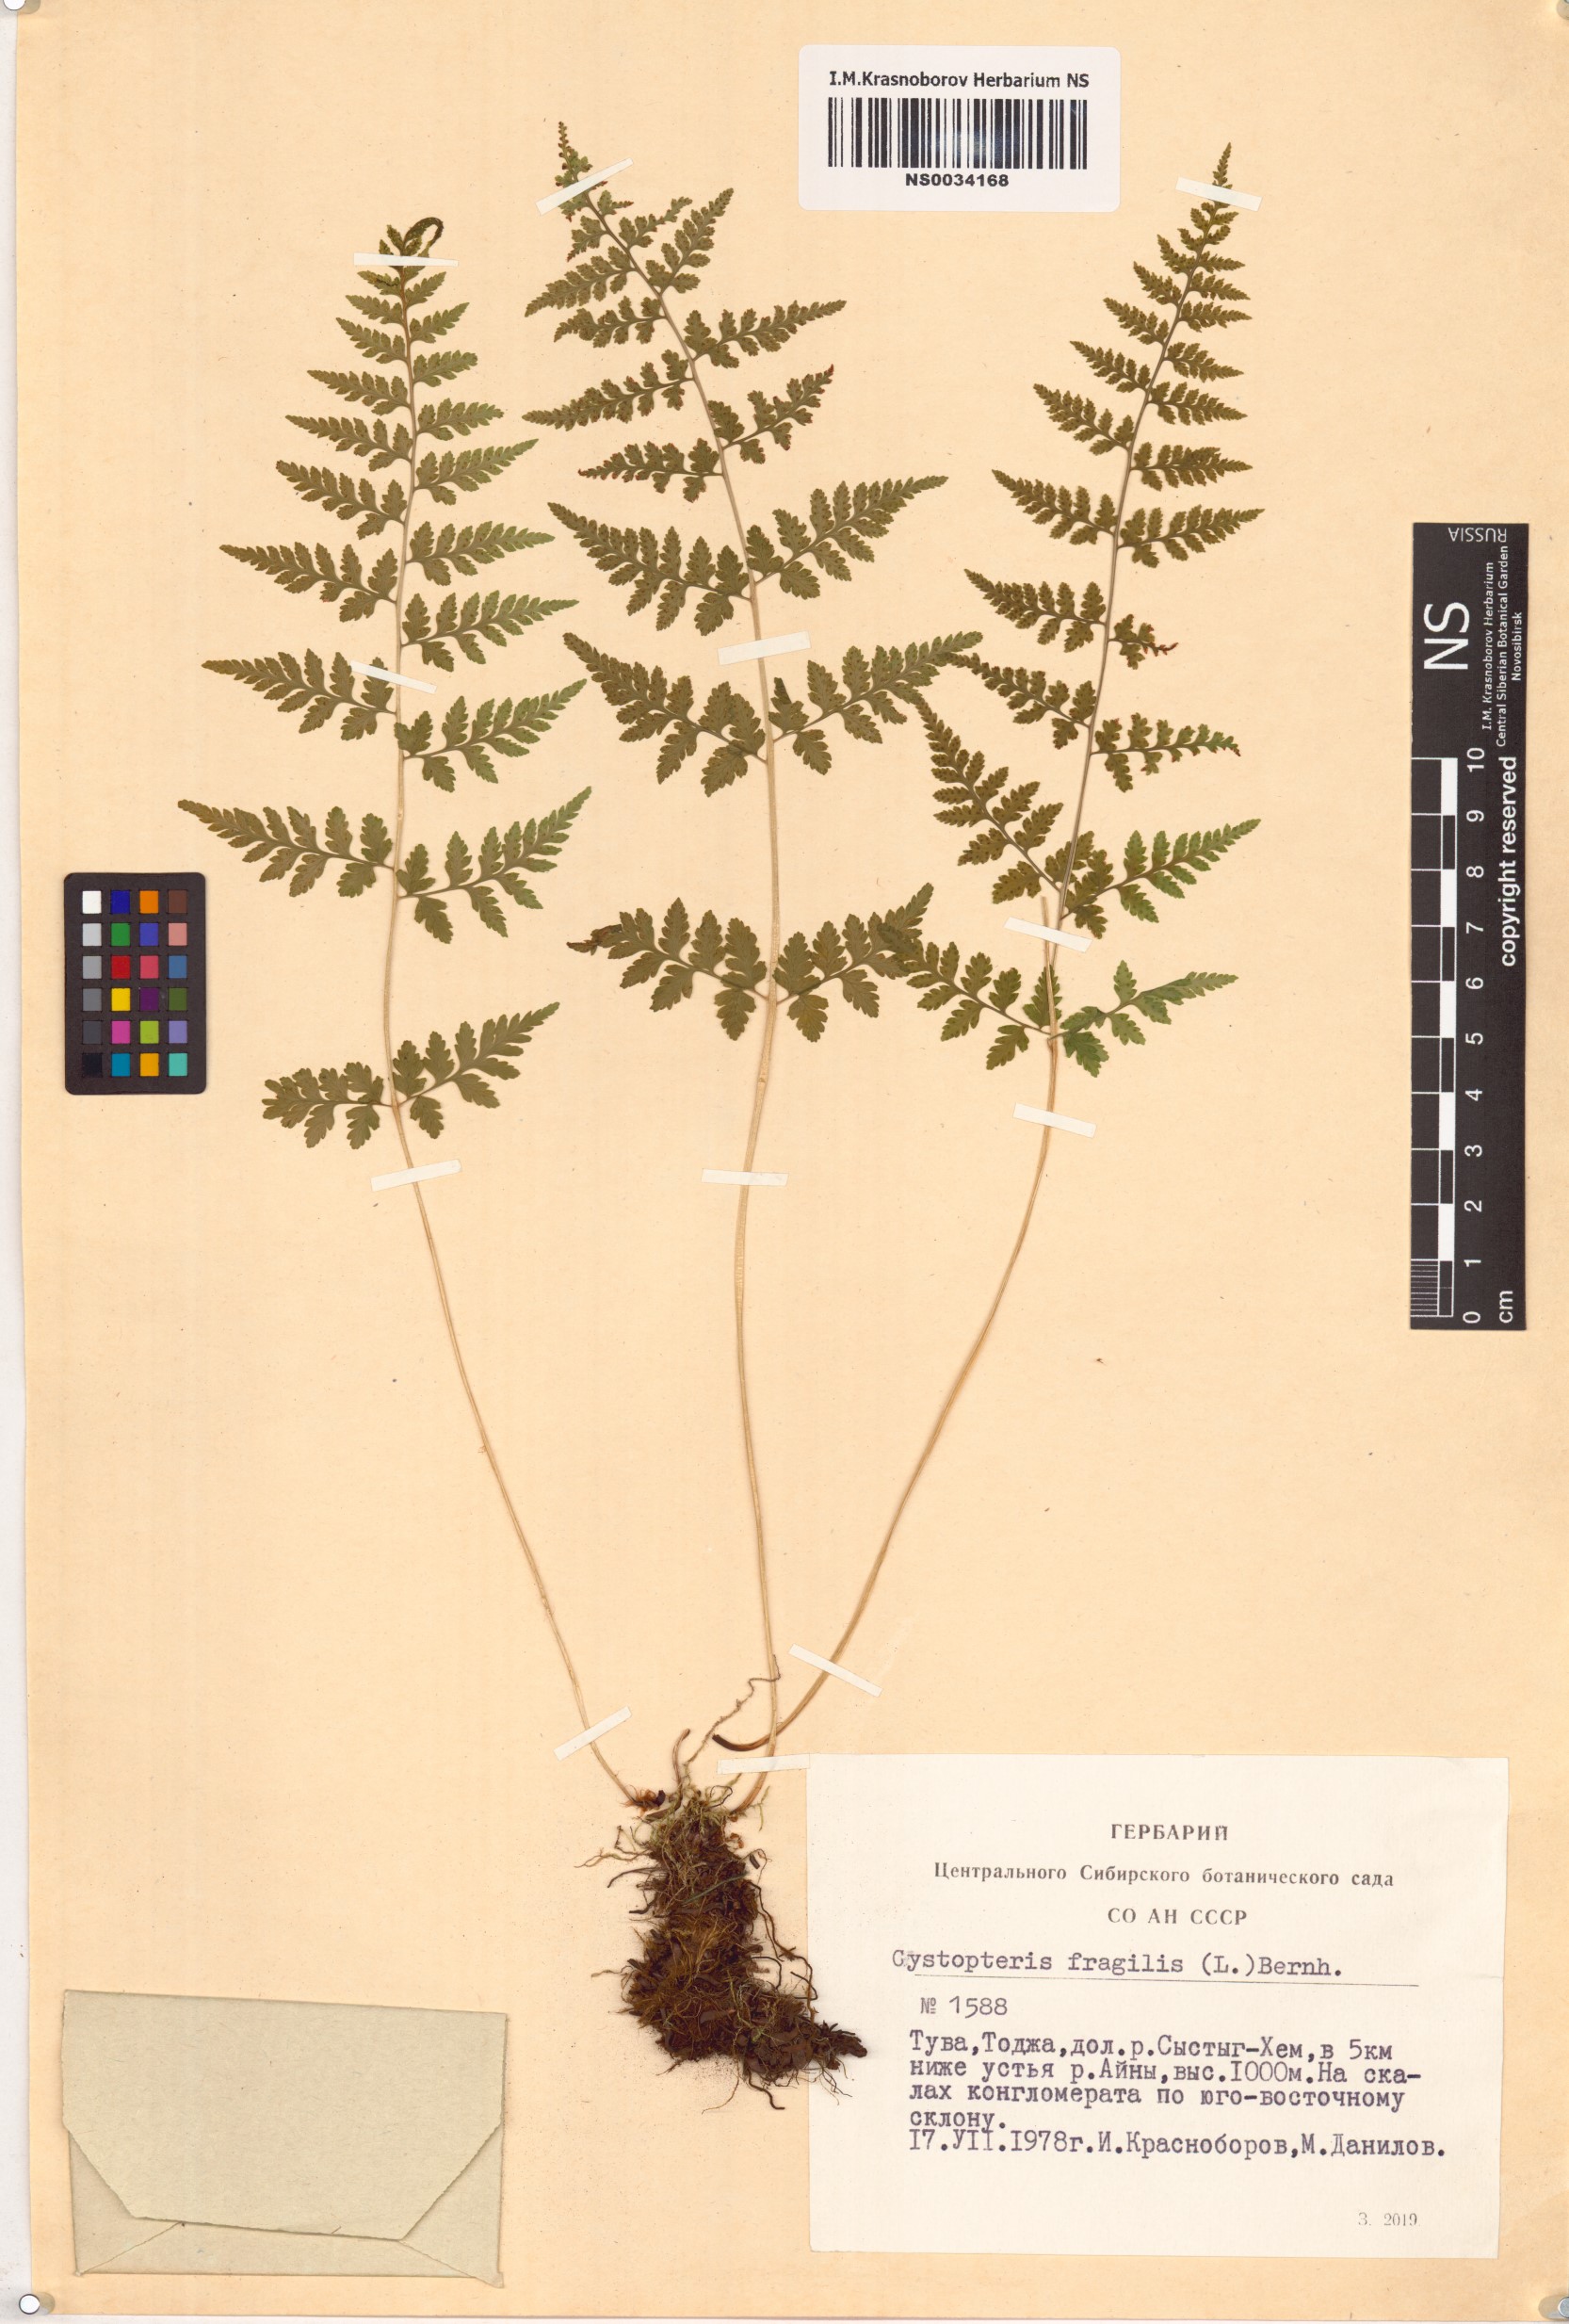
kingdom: Plantae
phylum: Tracheophyta
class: Polypodiopsida
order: Polypodiales
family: Cystopteridaceae
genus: Cystopteris
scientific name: Cystopteris fragilis
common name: Brittle bladder fern
